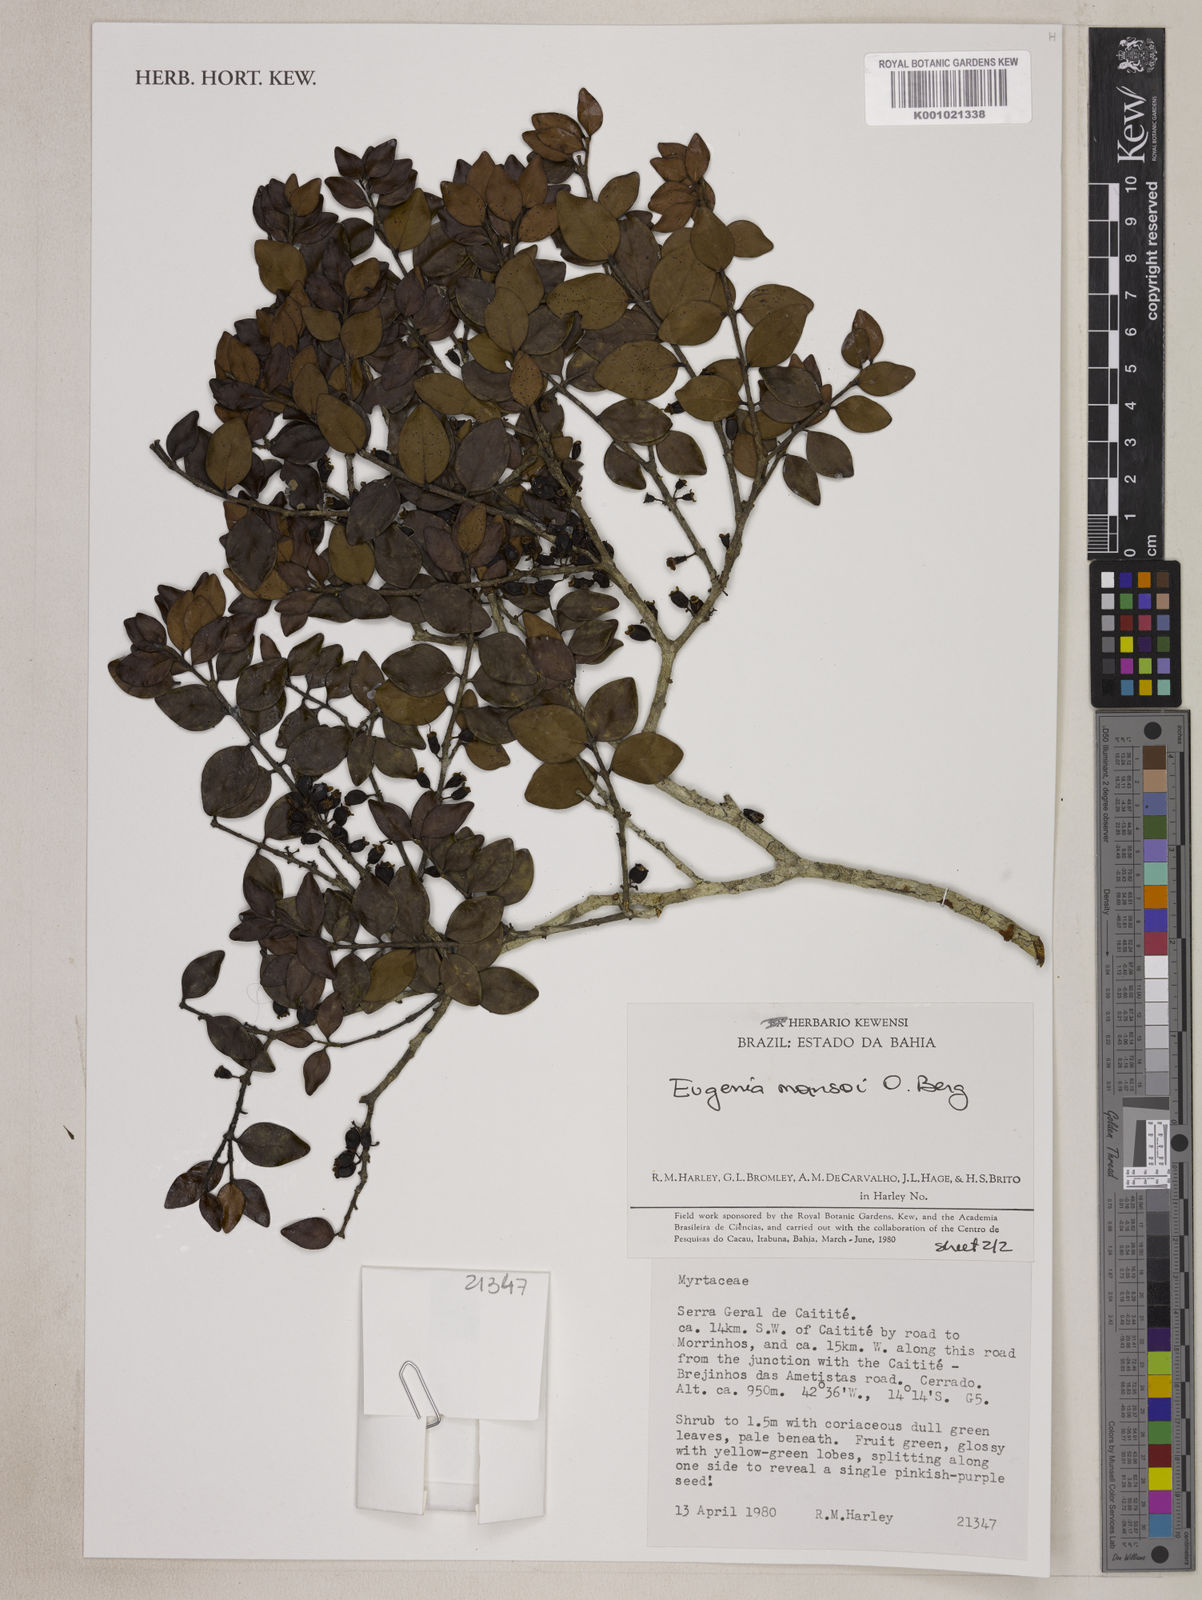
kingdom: Plantae
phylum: Tracheophyta
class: Magnoliopsida
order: Myrtales
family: Myrtaceae
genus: Eugenia
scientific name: Eugenia mansoi
